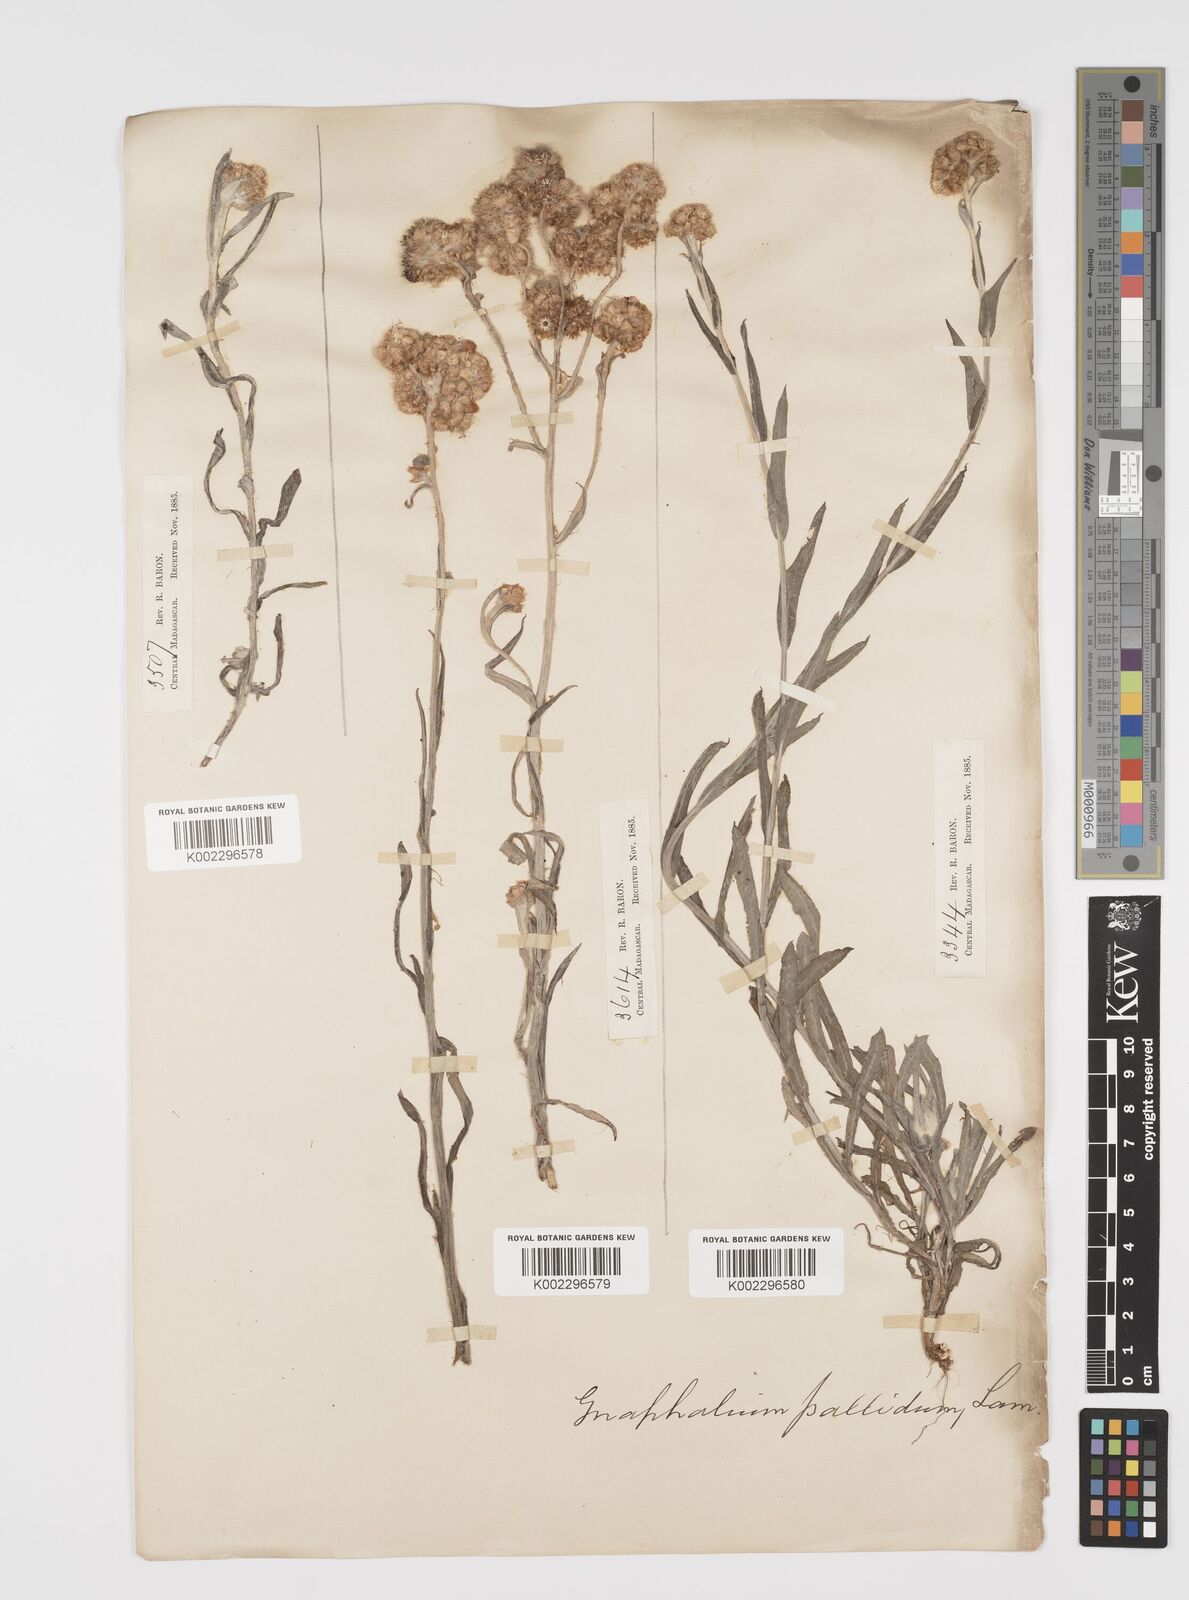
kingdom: Plantae
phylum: Tracheophyta
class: Magnoliopsida
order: Asterales
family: Asteraceae
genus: Helichrysum
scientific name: Helichrysum luteoalbum
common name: Daisy
